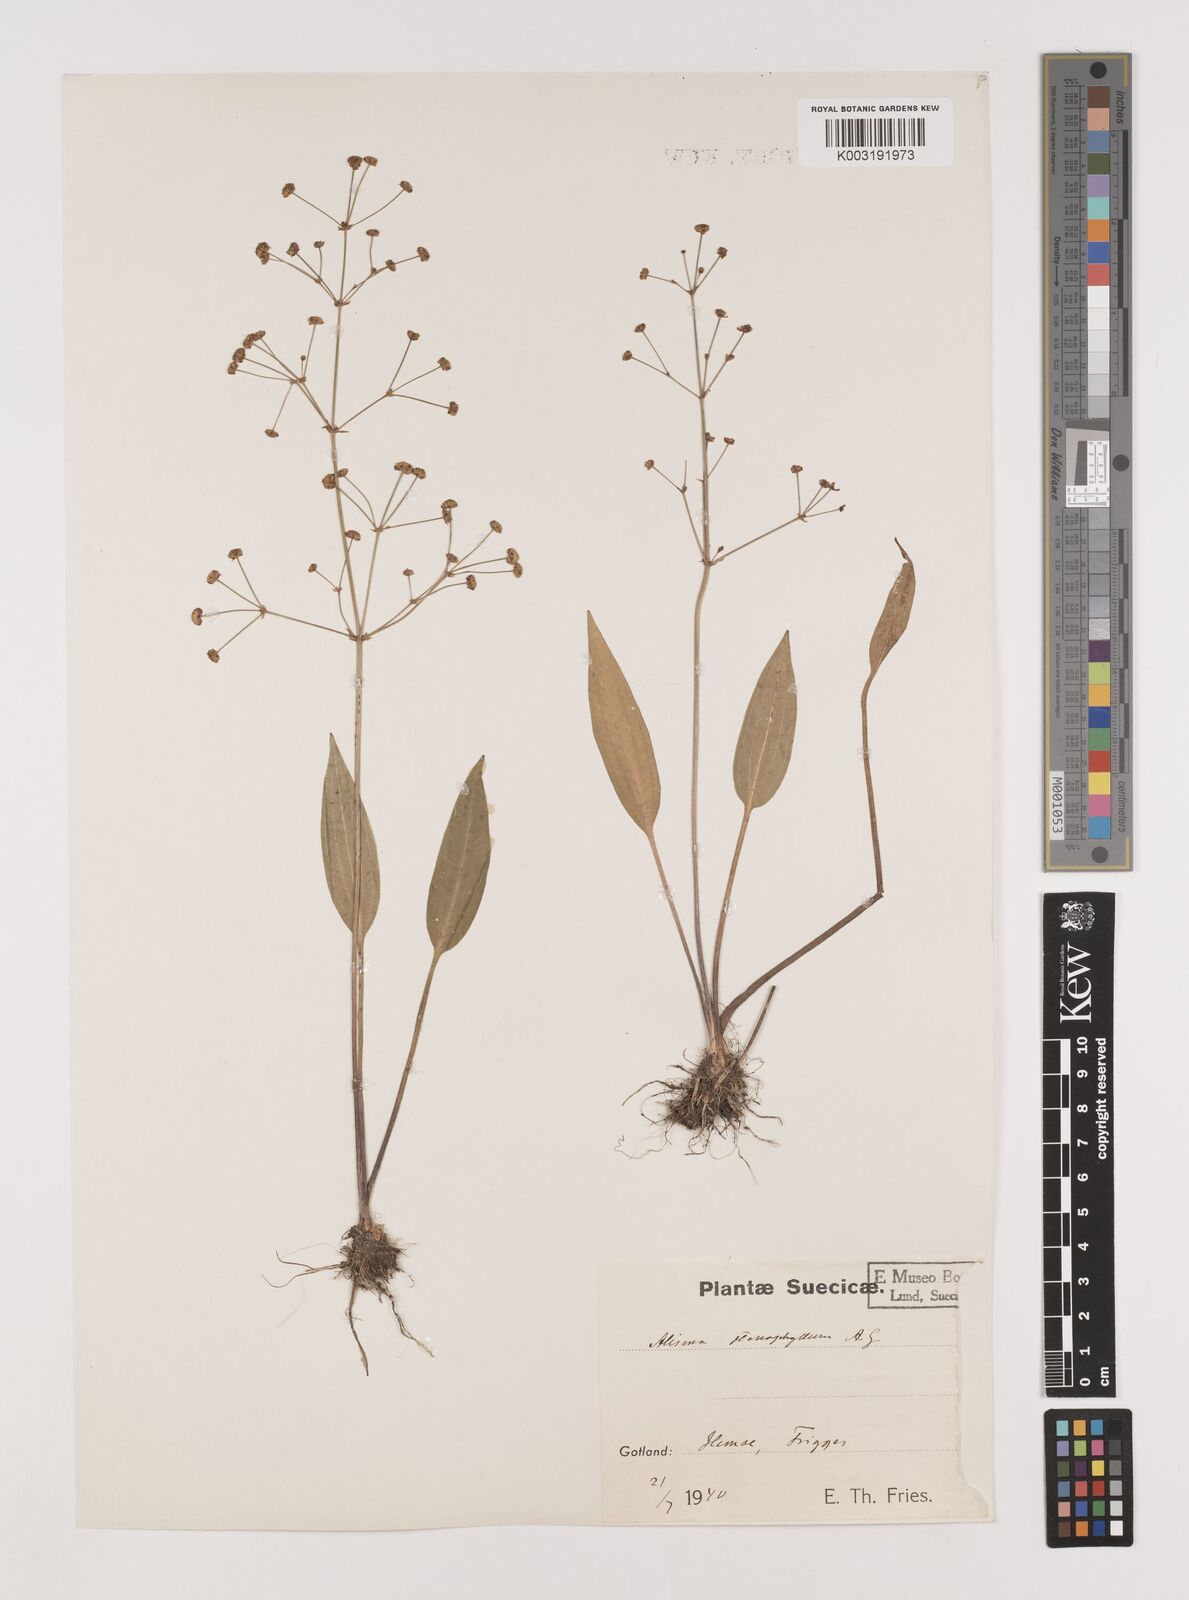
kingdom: Plantae
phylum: Tracheophyta
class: Liliopsida
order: Alismatales
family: Alismataceae
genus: Alisma
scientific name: Alisma lanceolatum
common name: Narrow-leaved water-plantain
